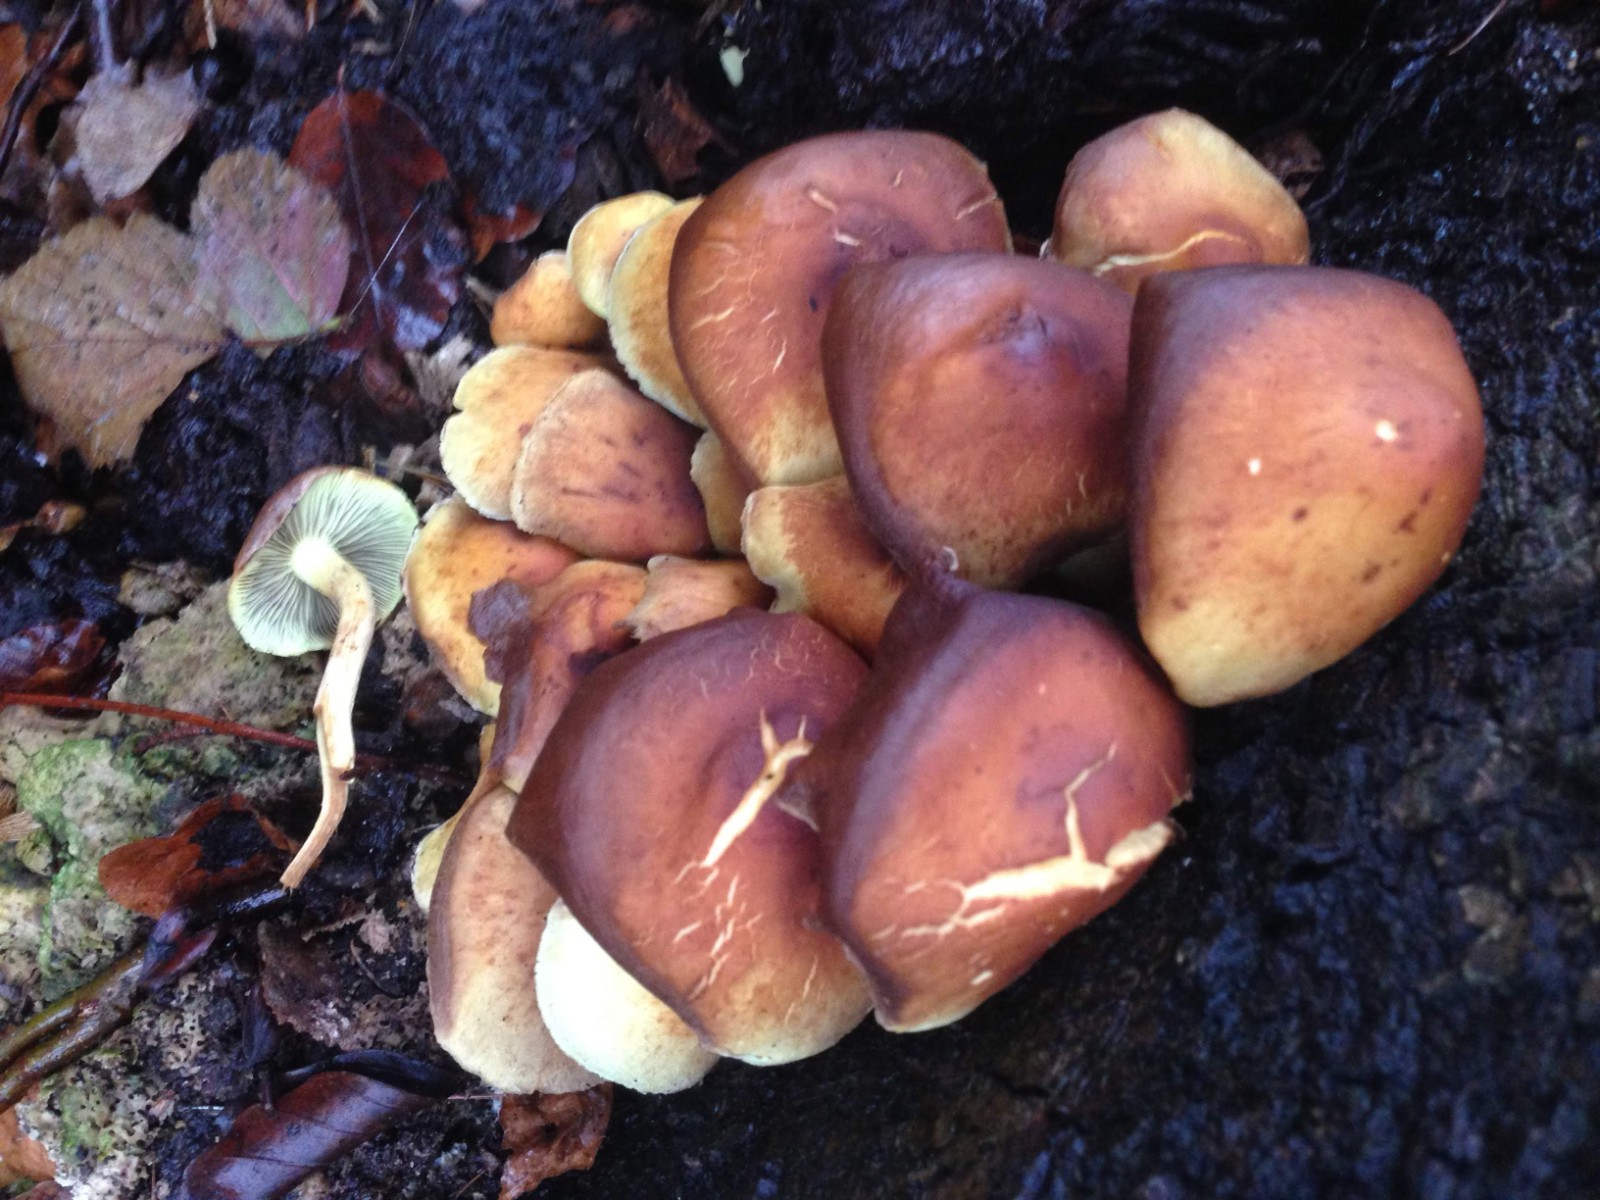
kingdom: Fungi
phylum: Basidiomycota
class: Agaricomycetes
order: Agaricales
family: Strophariaceae
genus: Hypholoma
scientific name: Hypholoma fasciculare
